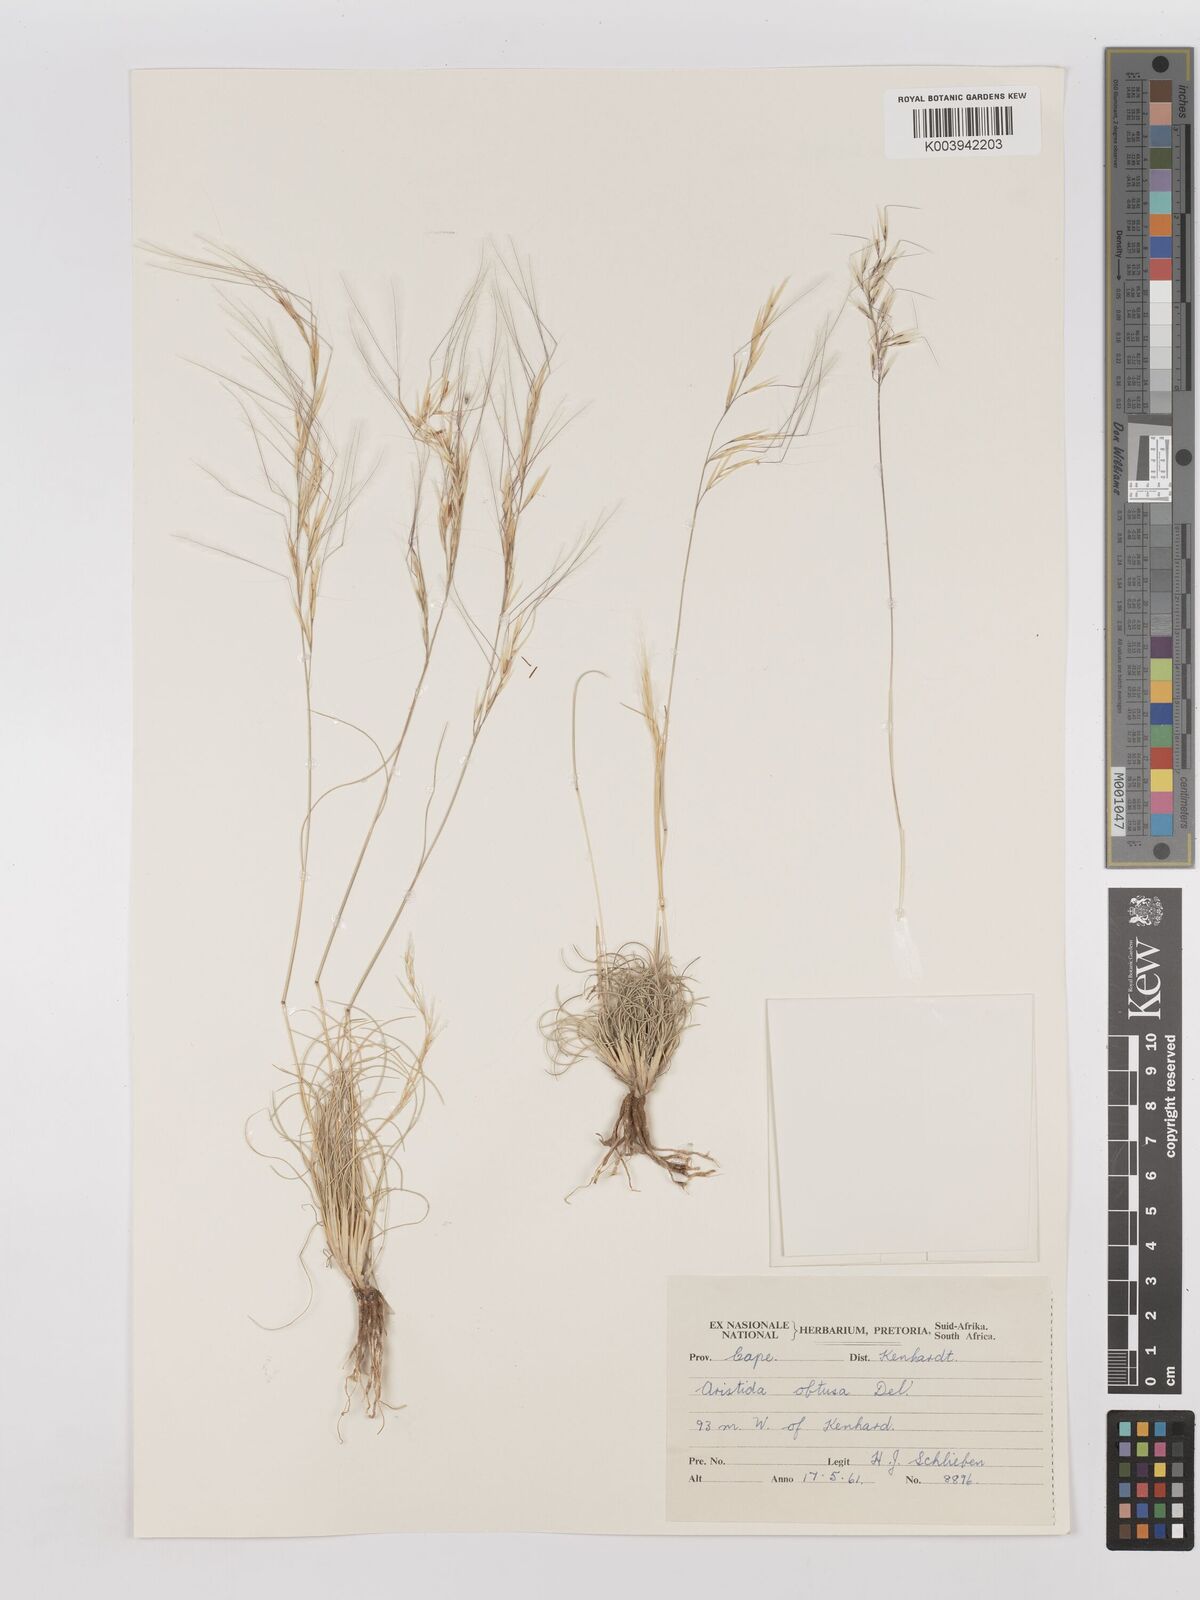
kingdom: Plantae
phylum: Tracheophyta
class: Liliopsida
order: Poales
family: Poaceae
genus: Stipagrostis
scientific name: Stipagrostis obtusa
